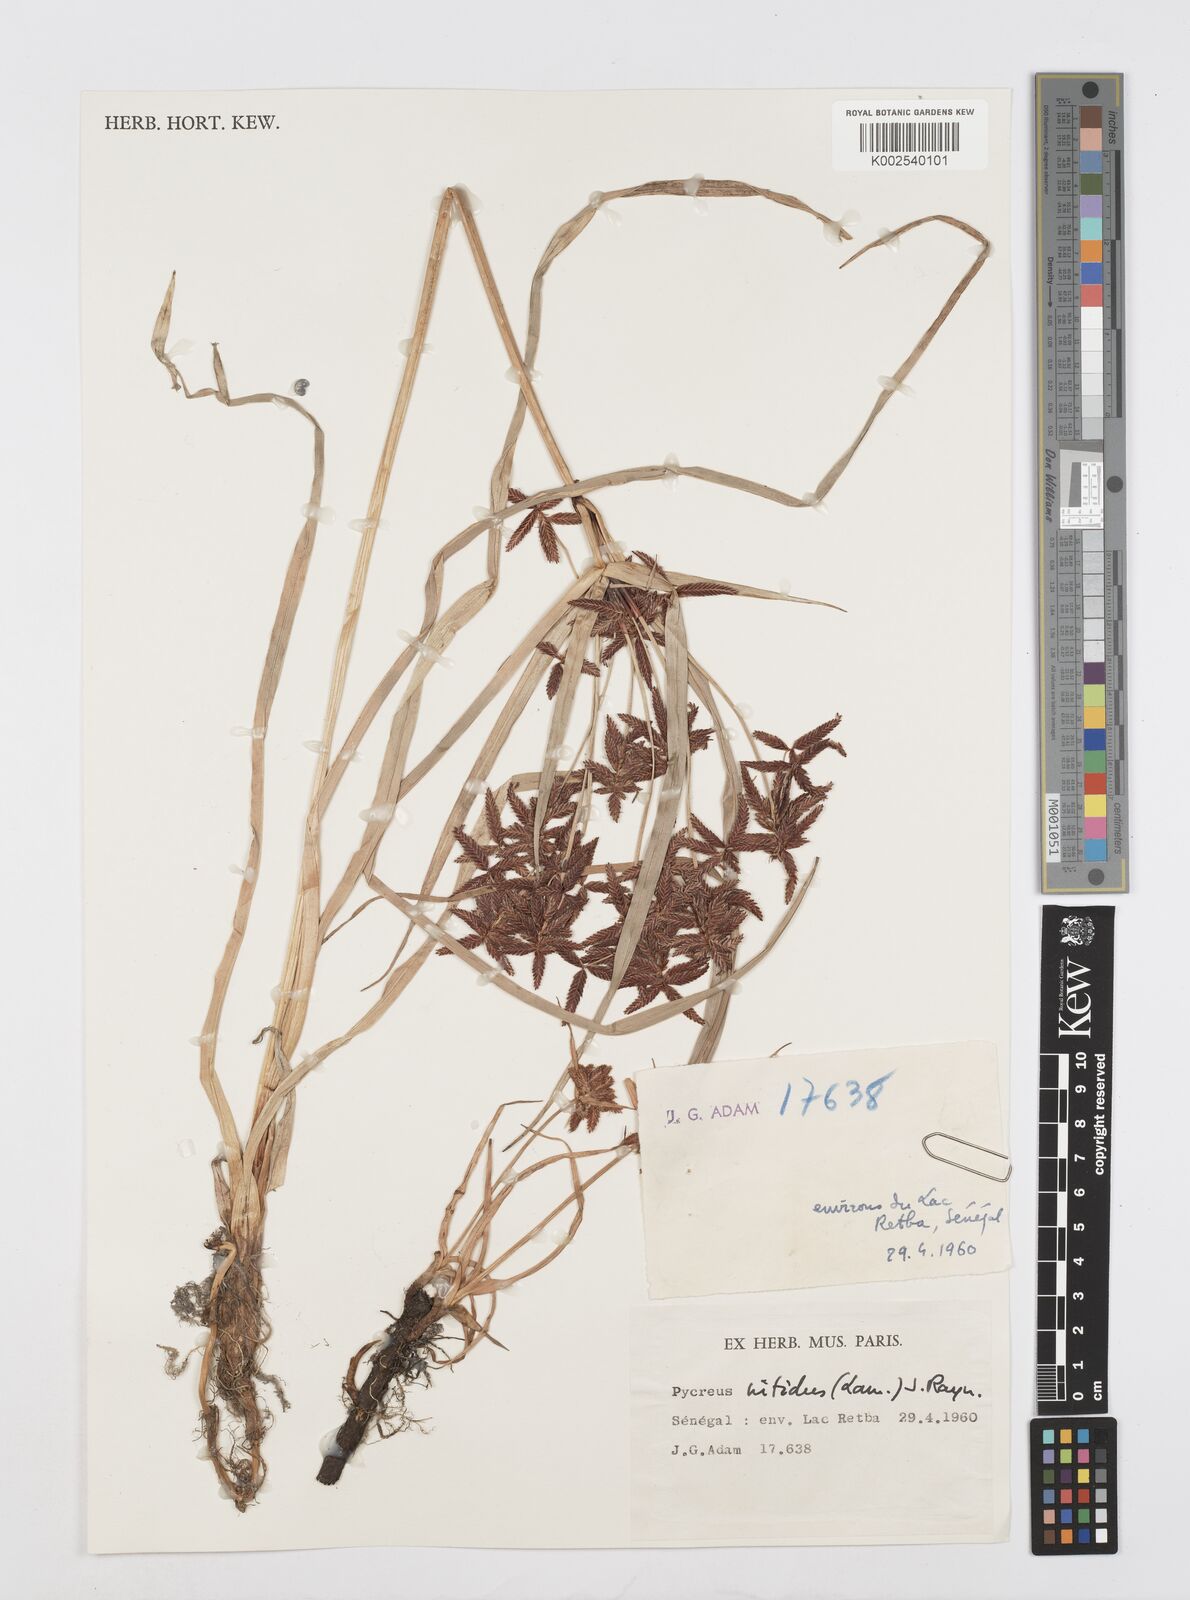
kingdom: Plantae
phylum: Tracheophyta
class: Liliopsida
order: Poales
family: Cyperaceae
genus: Cyperus
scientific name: Cyperus nitidus
